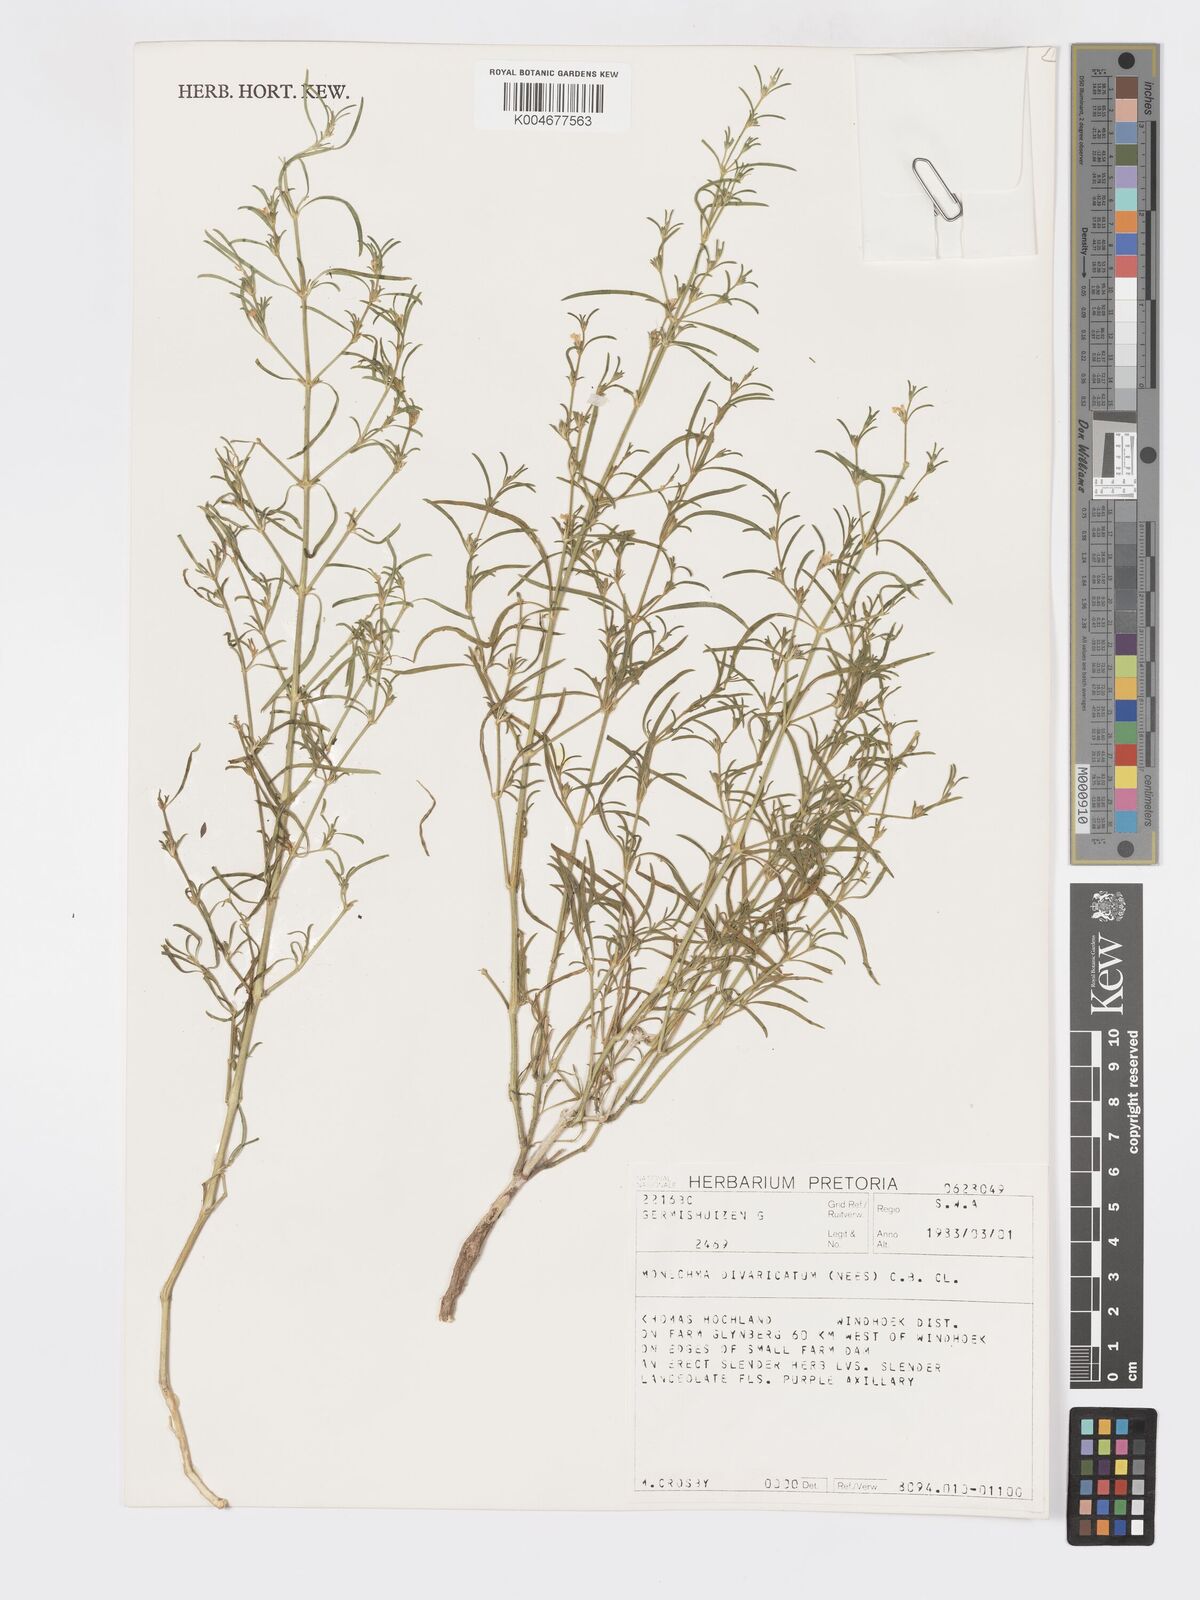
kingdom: Plantae
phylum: Tracheophyta
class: Magnoliopsida
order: Lamiales
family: Acanthaceae
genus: Pogonospermum
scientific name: Pogonospermum
